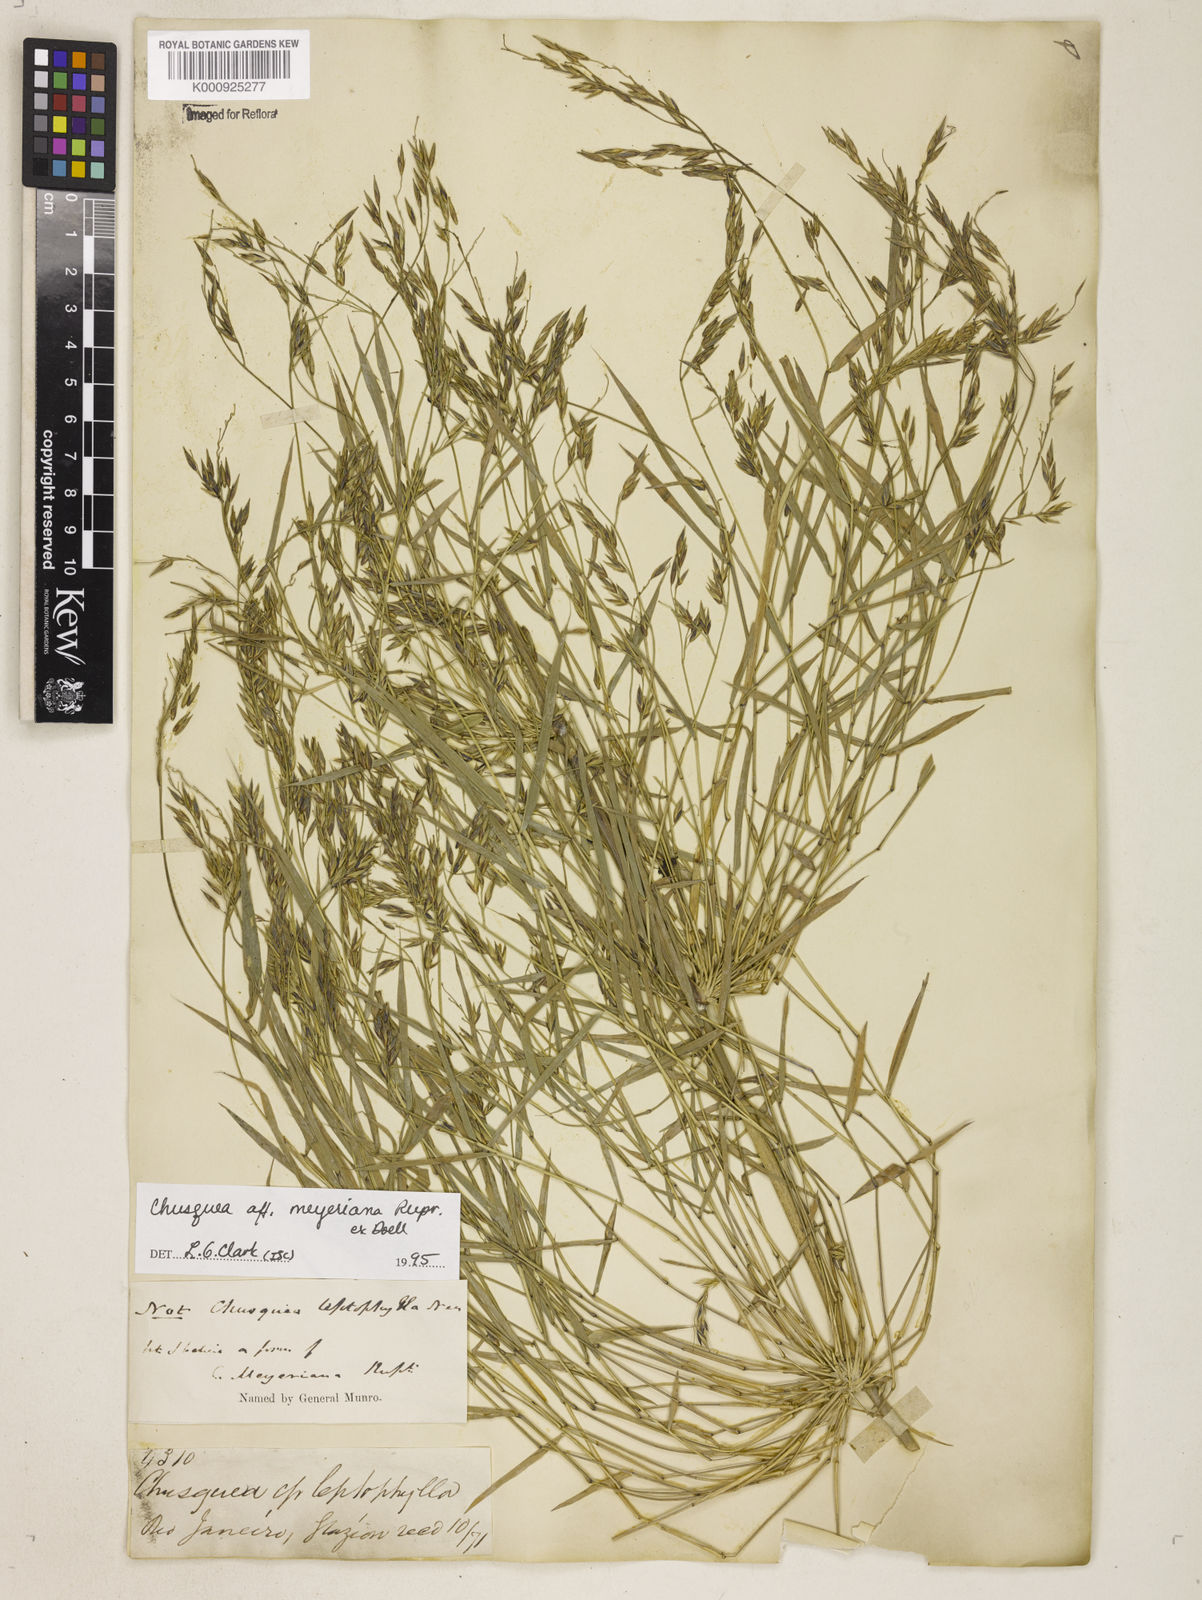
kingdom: Plantae
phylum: Tracheophyta
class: Liliopsida
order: Poales
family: Poaceae
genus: Chusquea
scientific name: Chusquea
